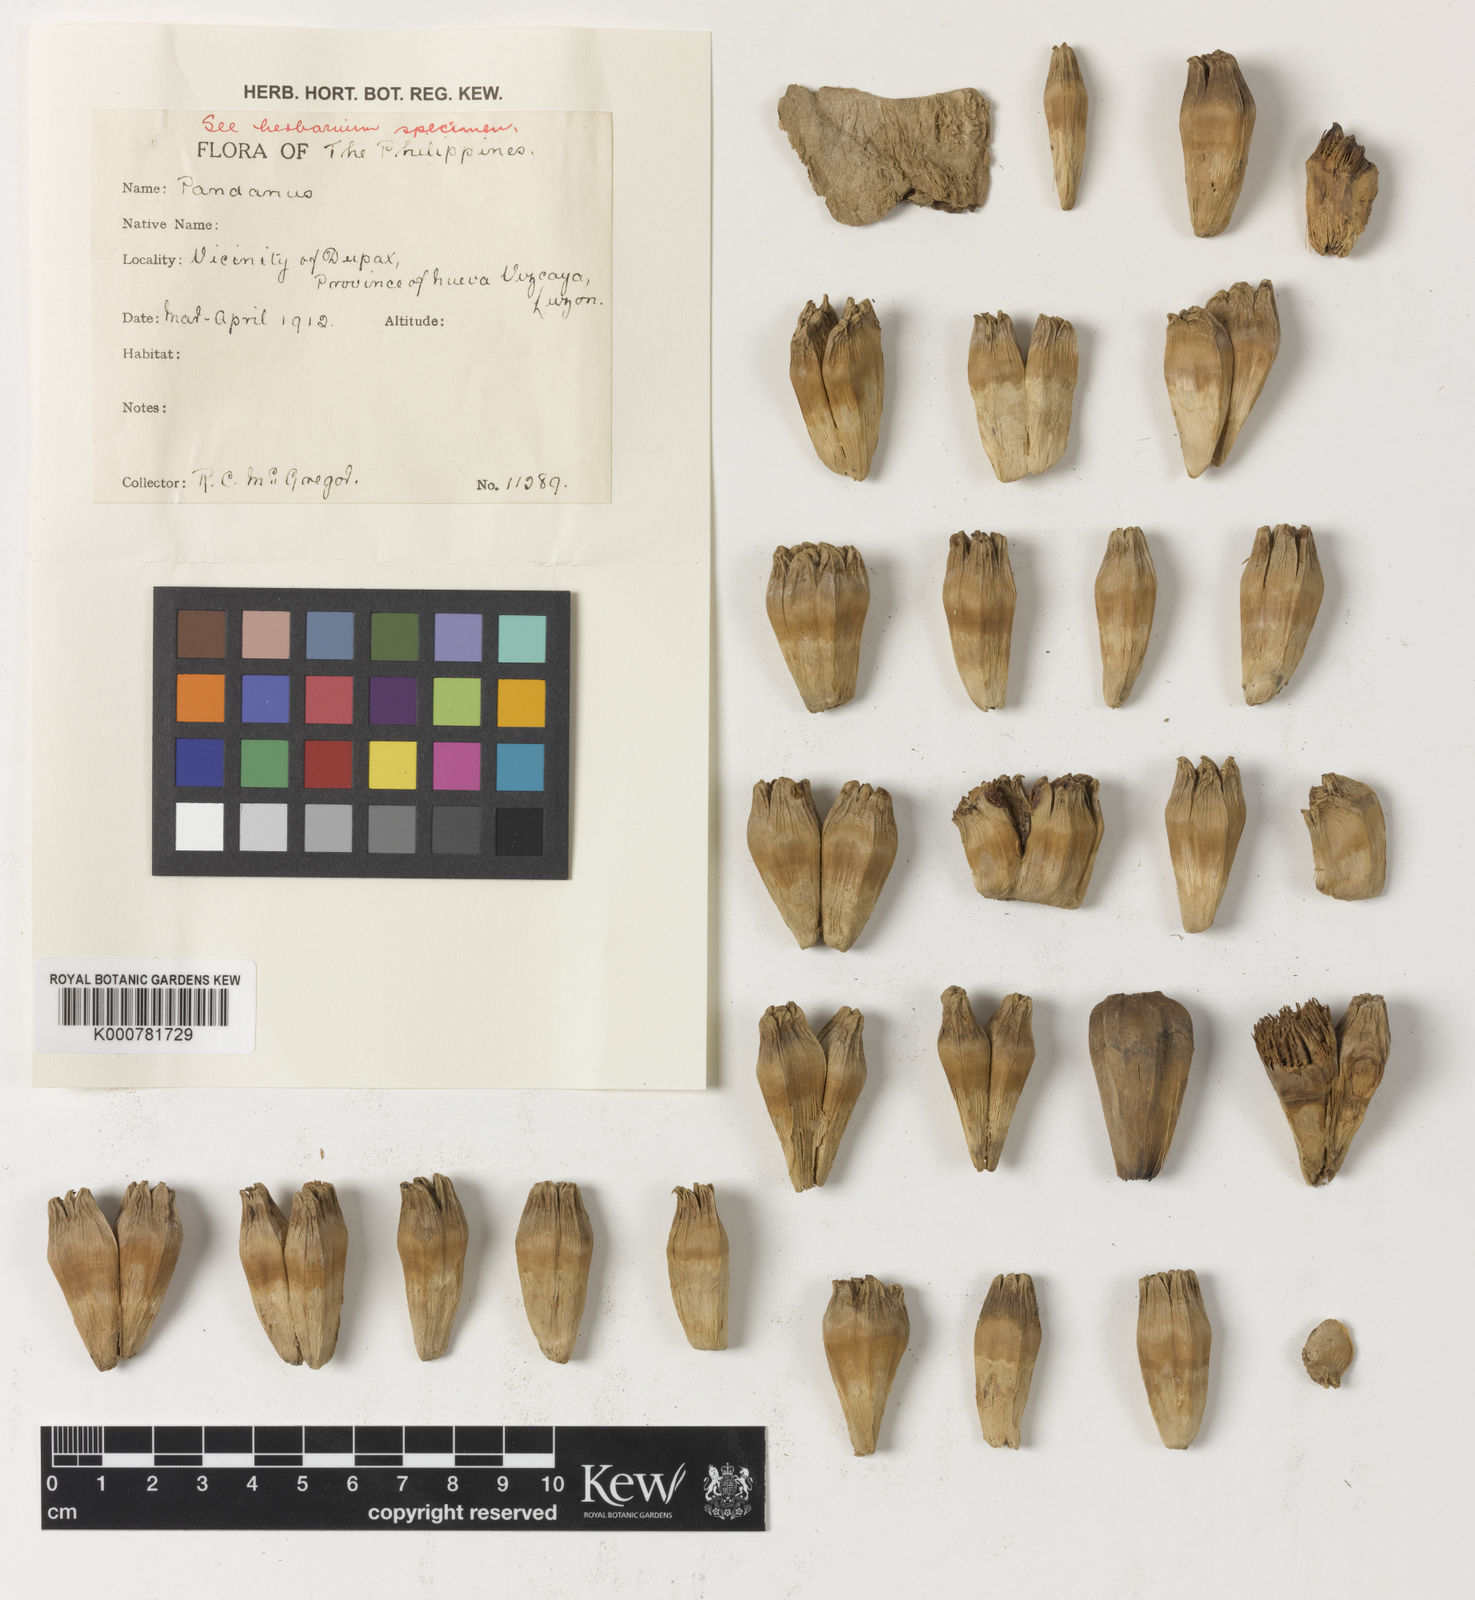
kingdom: Plantae
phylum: Tracheophyta
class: Liliopsida
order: Pandanales
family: Pandanaceae
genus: Pandanus
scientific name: Pandanus
